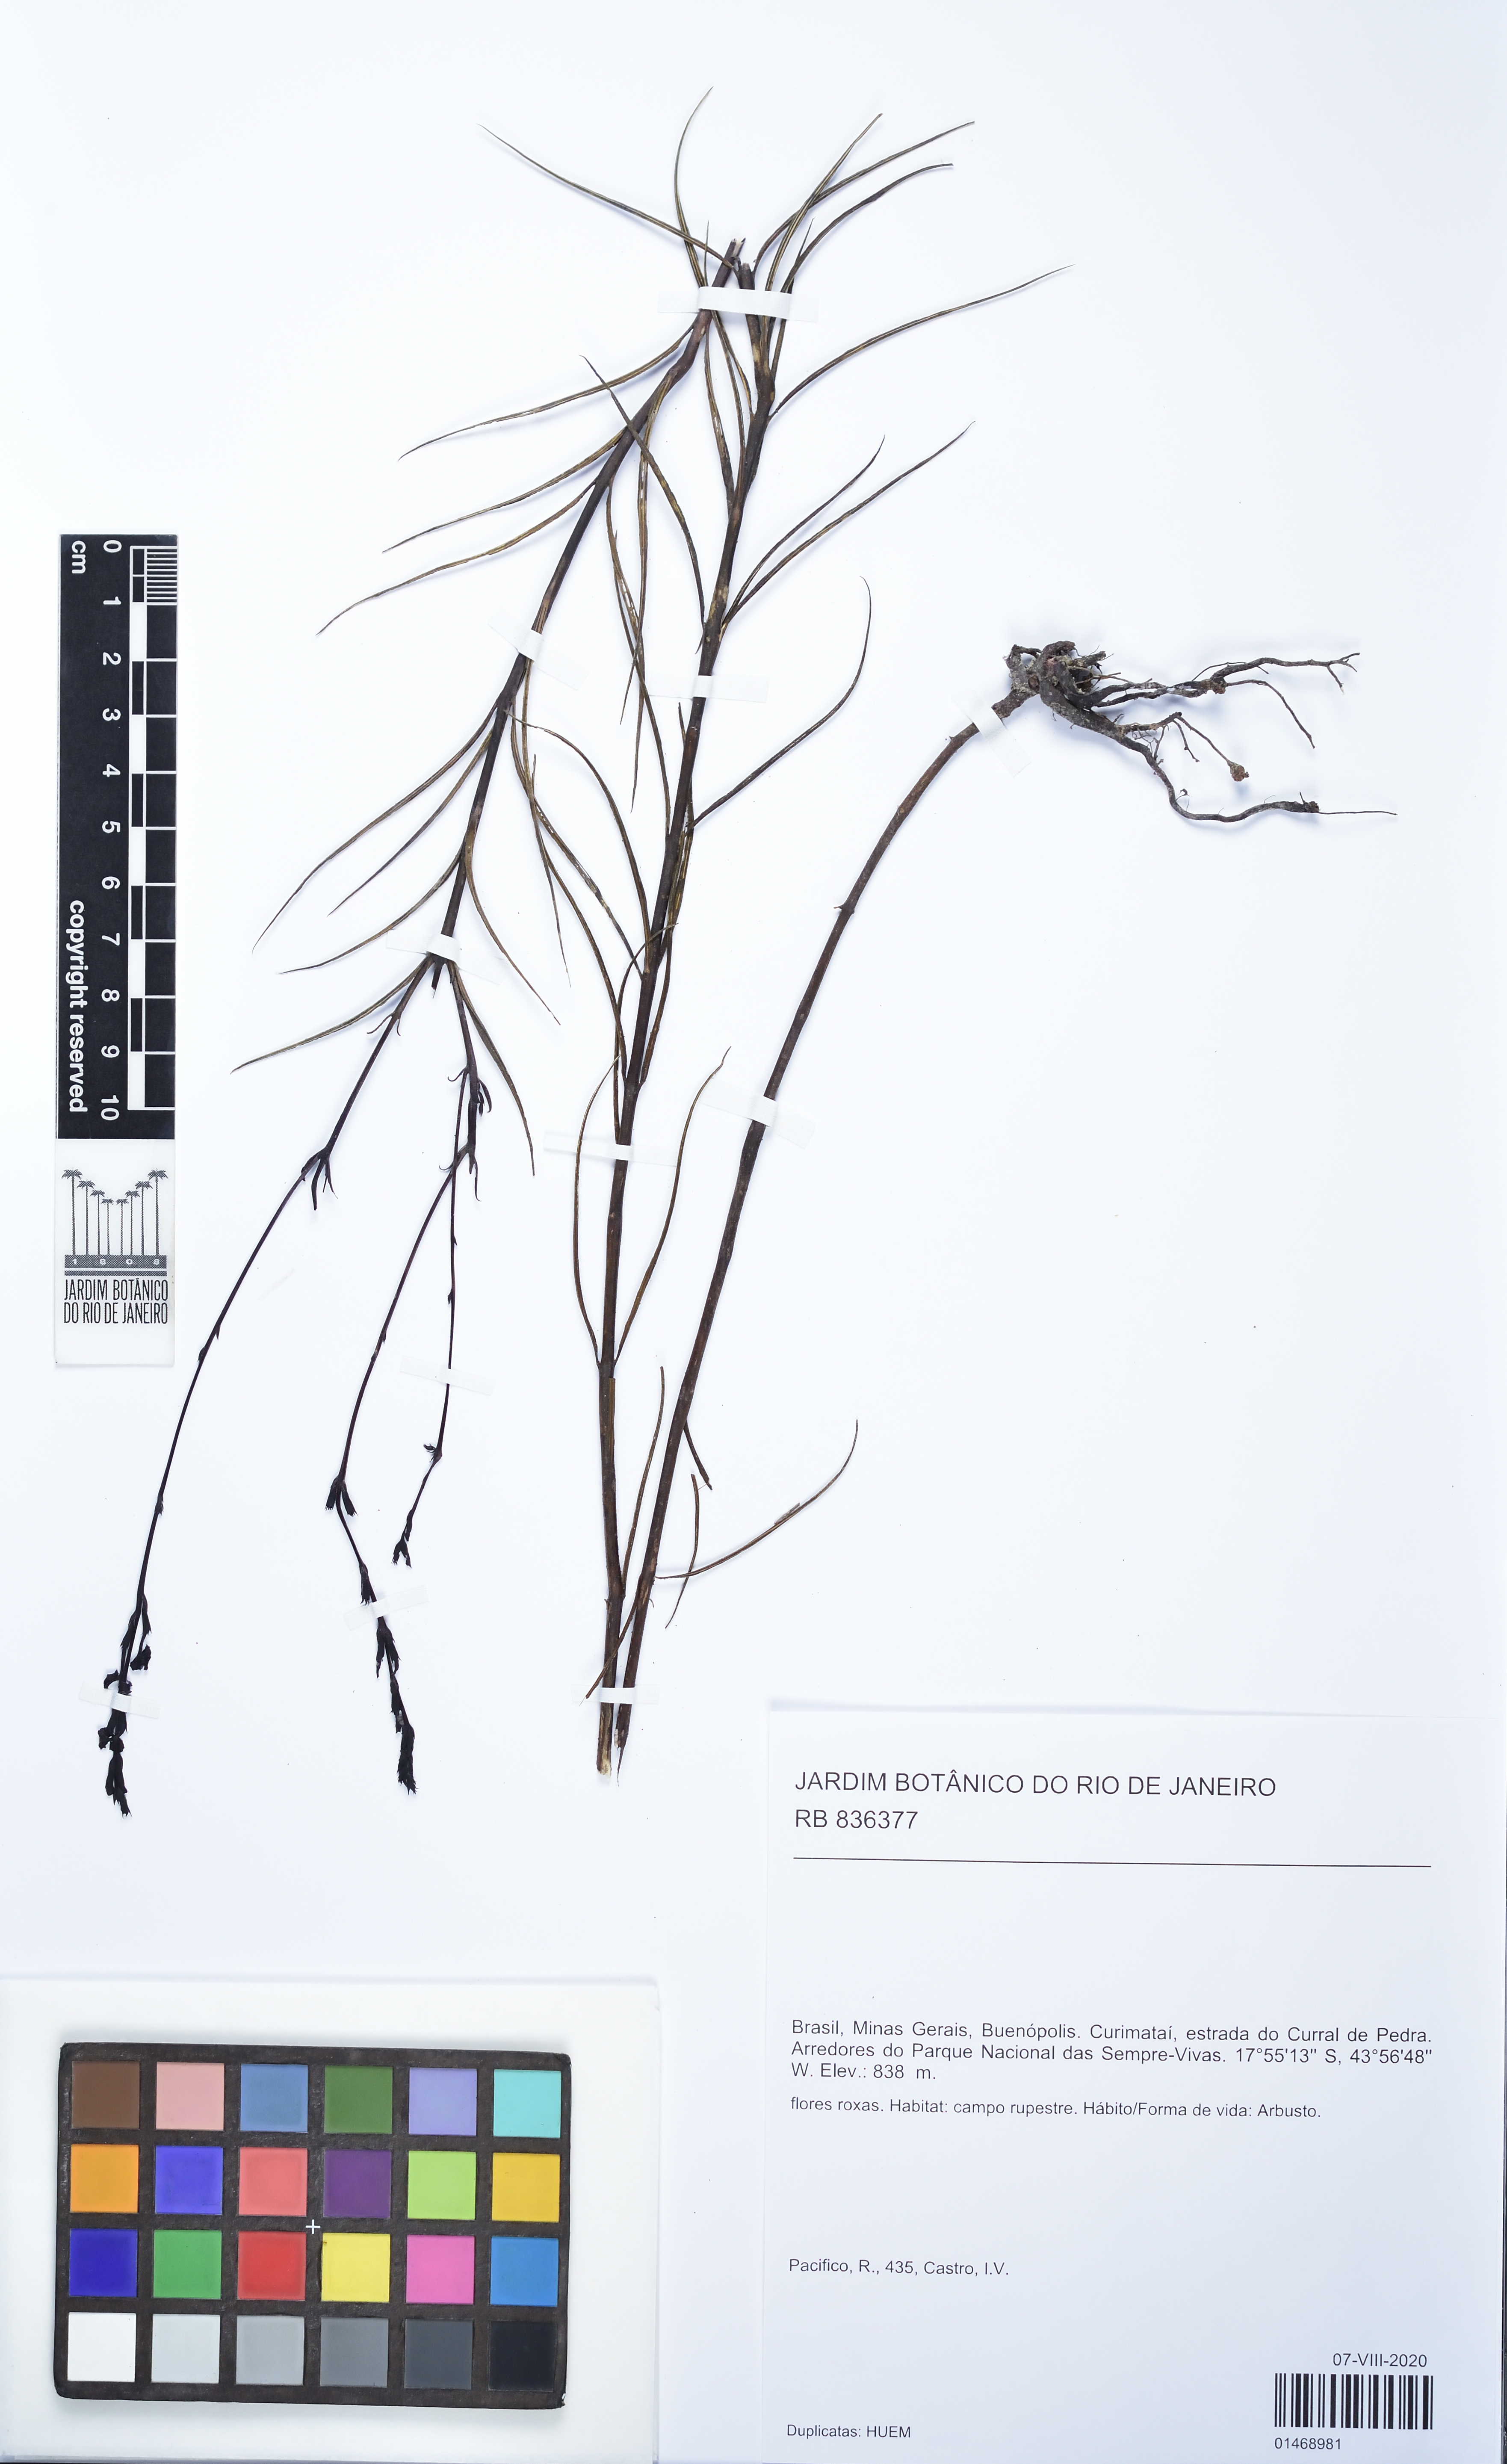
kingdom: Plantae
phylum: Tracheophyta
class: Magnoliopsida
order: Lamiales
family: Orobanchaceae
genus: Buchnera
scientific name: Buchnera
